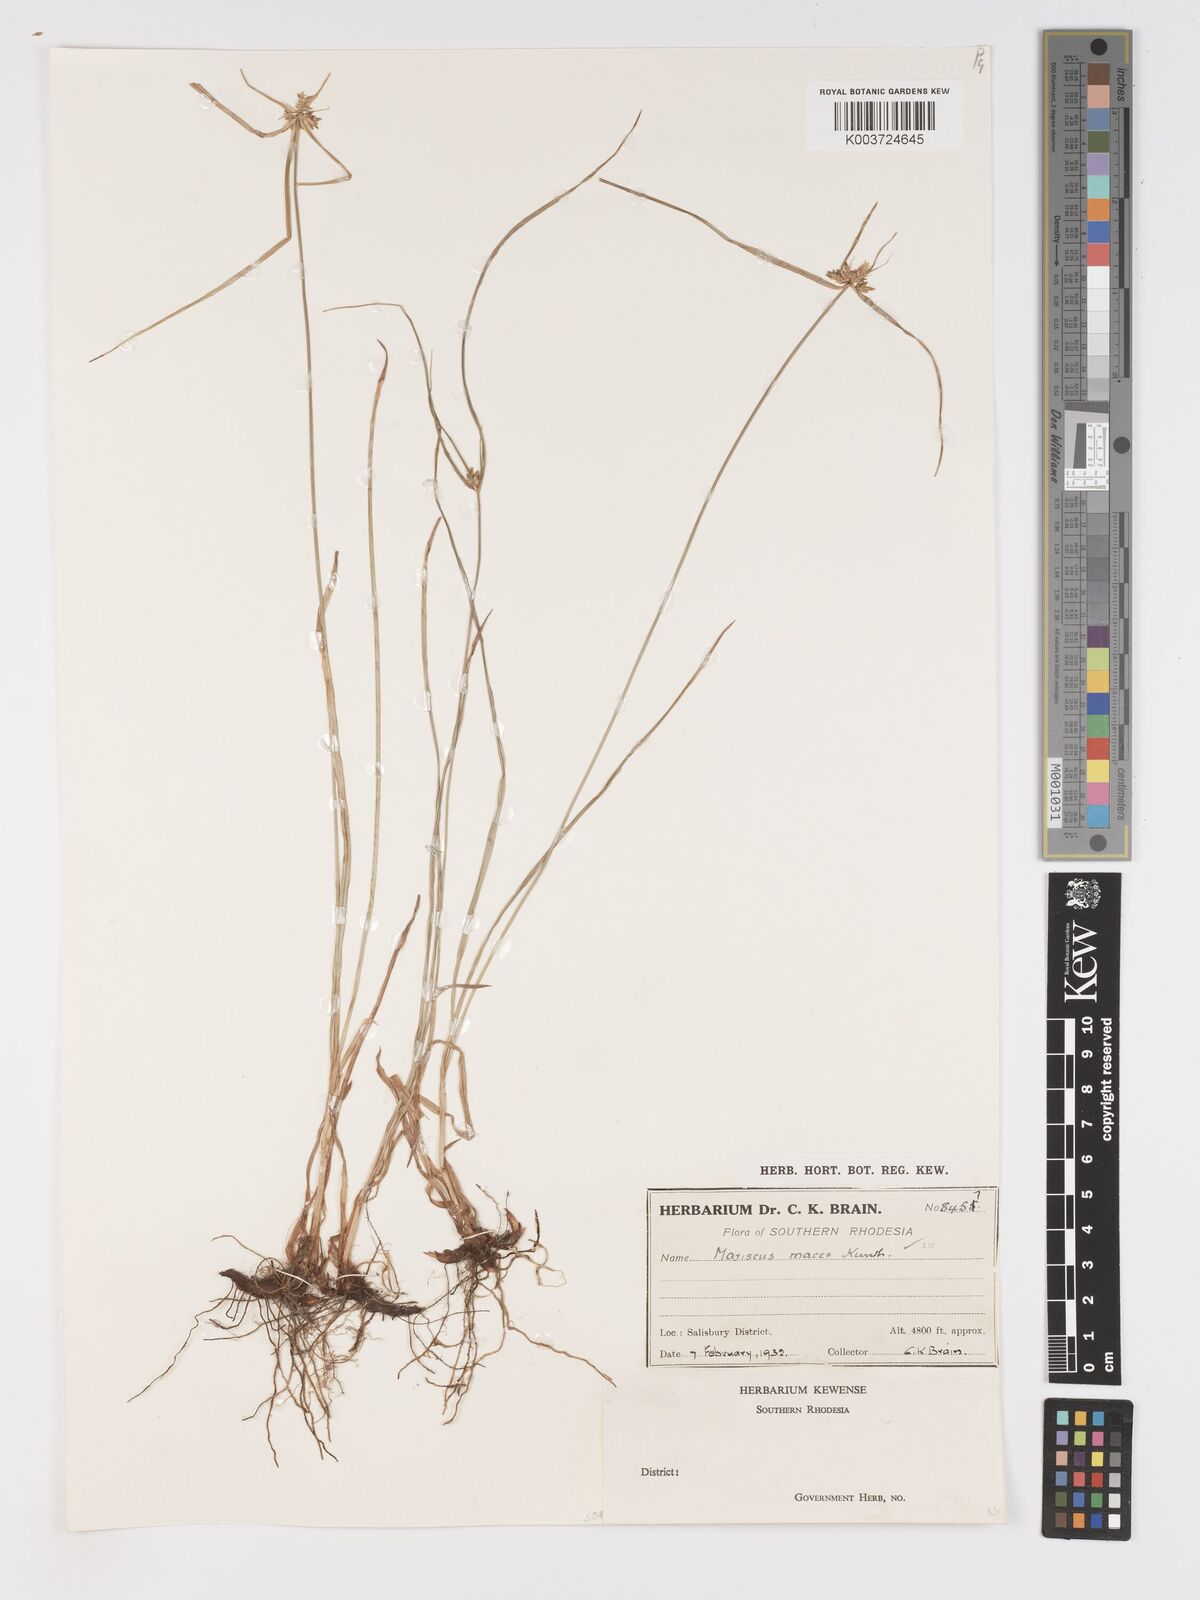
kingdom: Plantae
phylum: Tracheophyta
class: Liliopsida
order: Poales
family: Cyperaceae
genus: Cyperus
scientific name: Cyperus myrmecias
